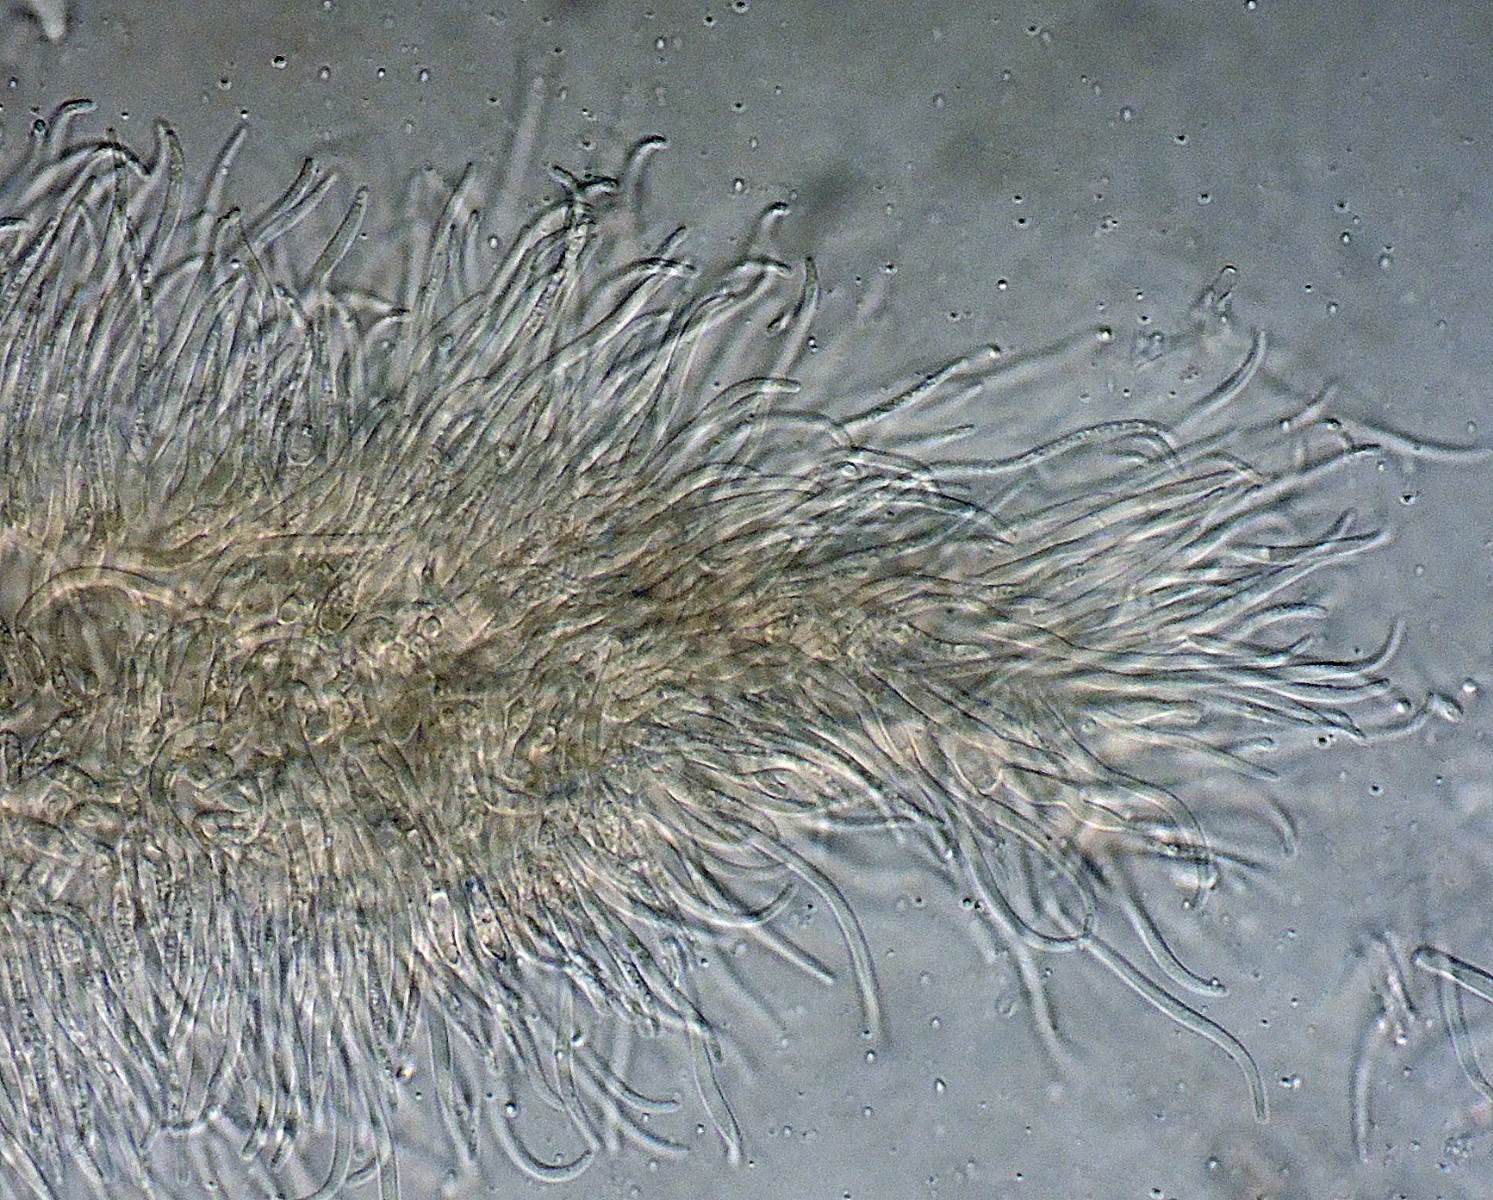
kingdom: Fungi
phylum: Ascomycota
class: Sordariomycetes
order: Diaporthales
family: Diaporthaceae
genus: Diaporthe
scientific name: Diaporthe rudis
